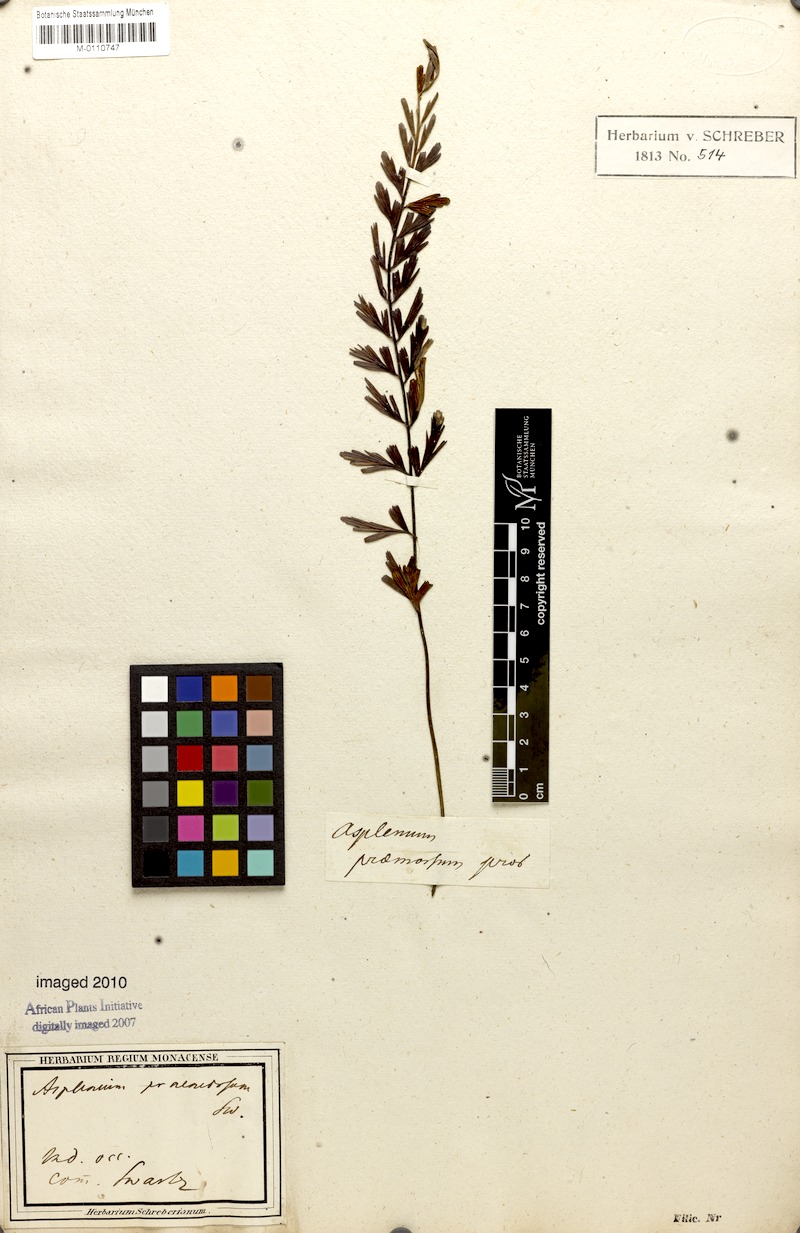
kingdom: Plantae
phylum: Tracheophyta
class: Polypodiopsida
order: Polypodiales
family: Aspleniaceae
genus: Asplenium
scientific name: Asplenium praemorsum
